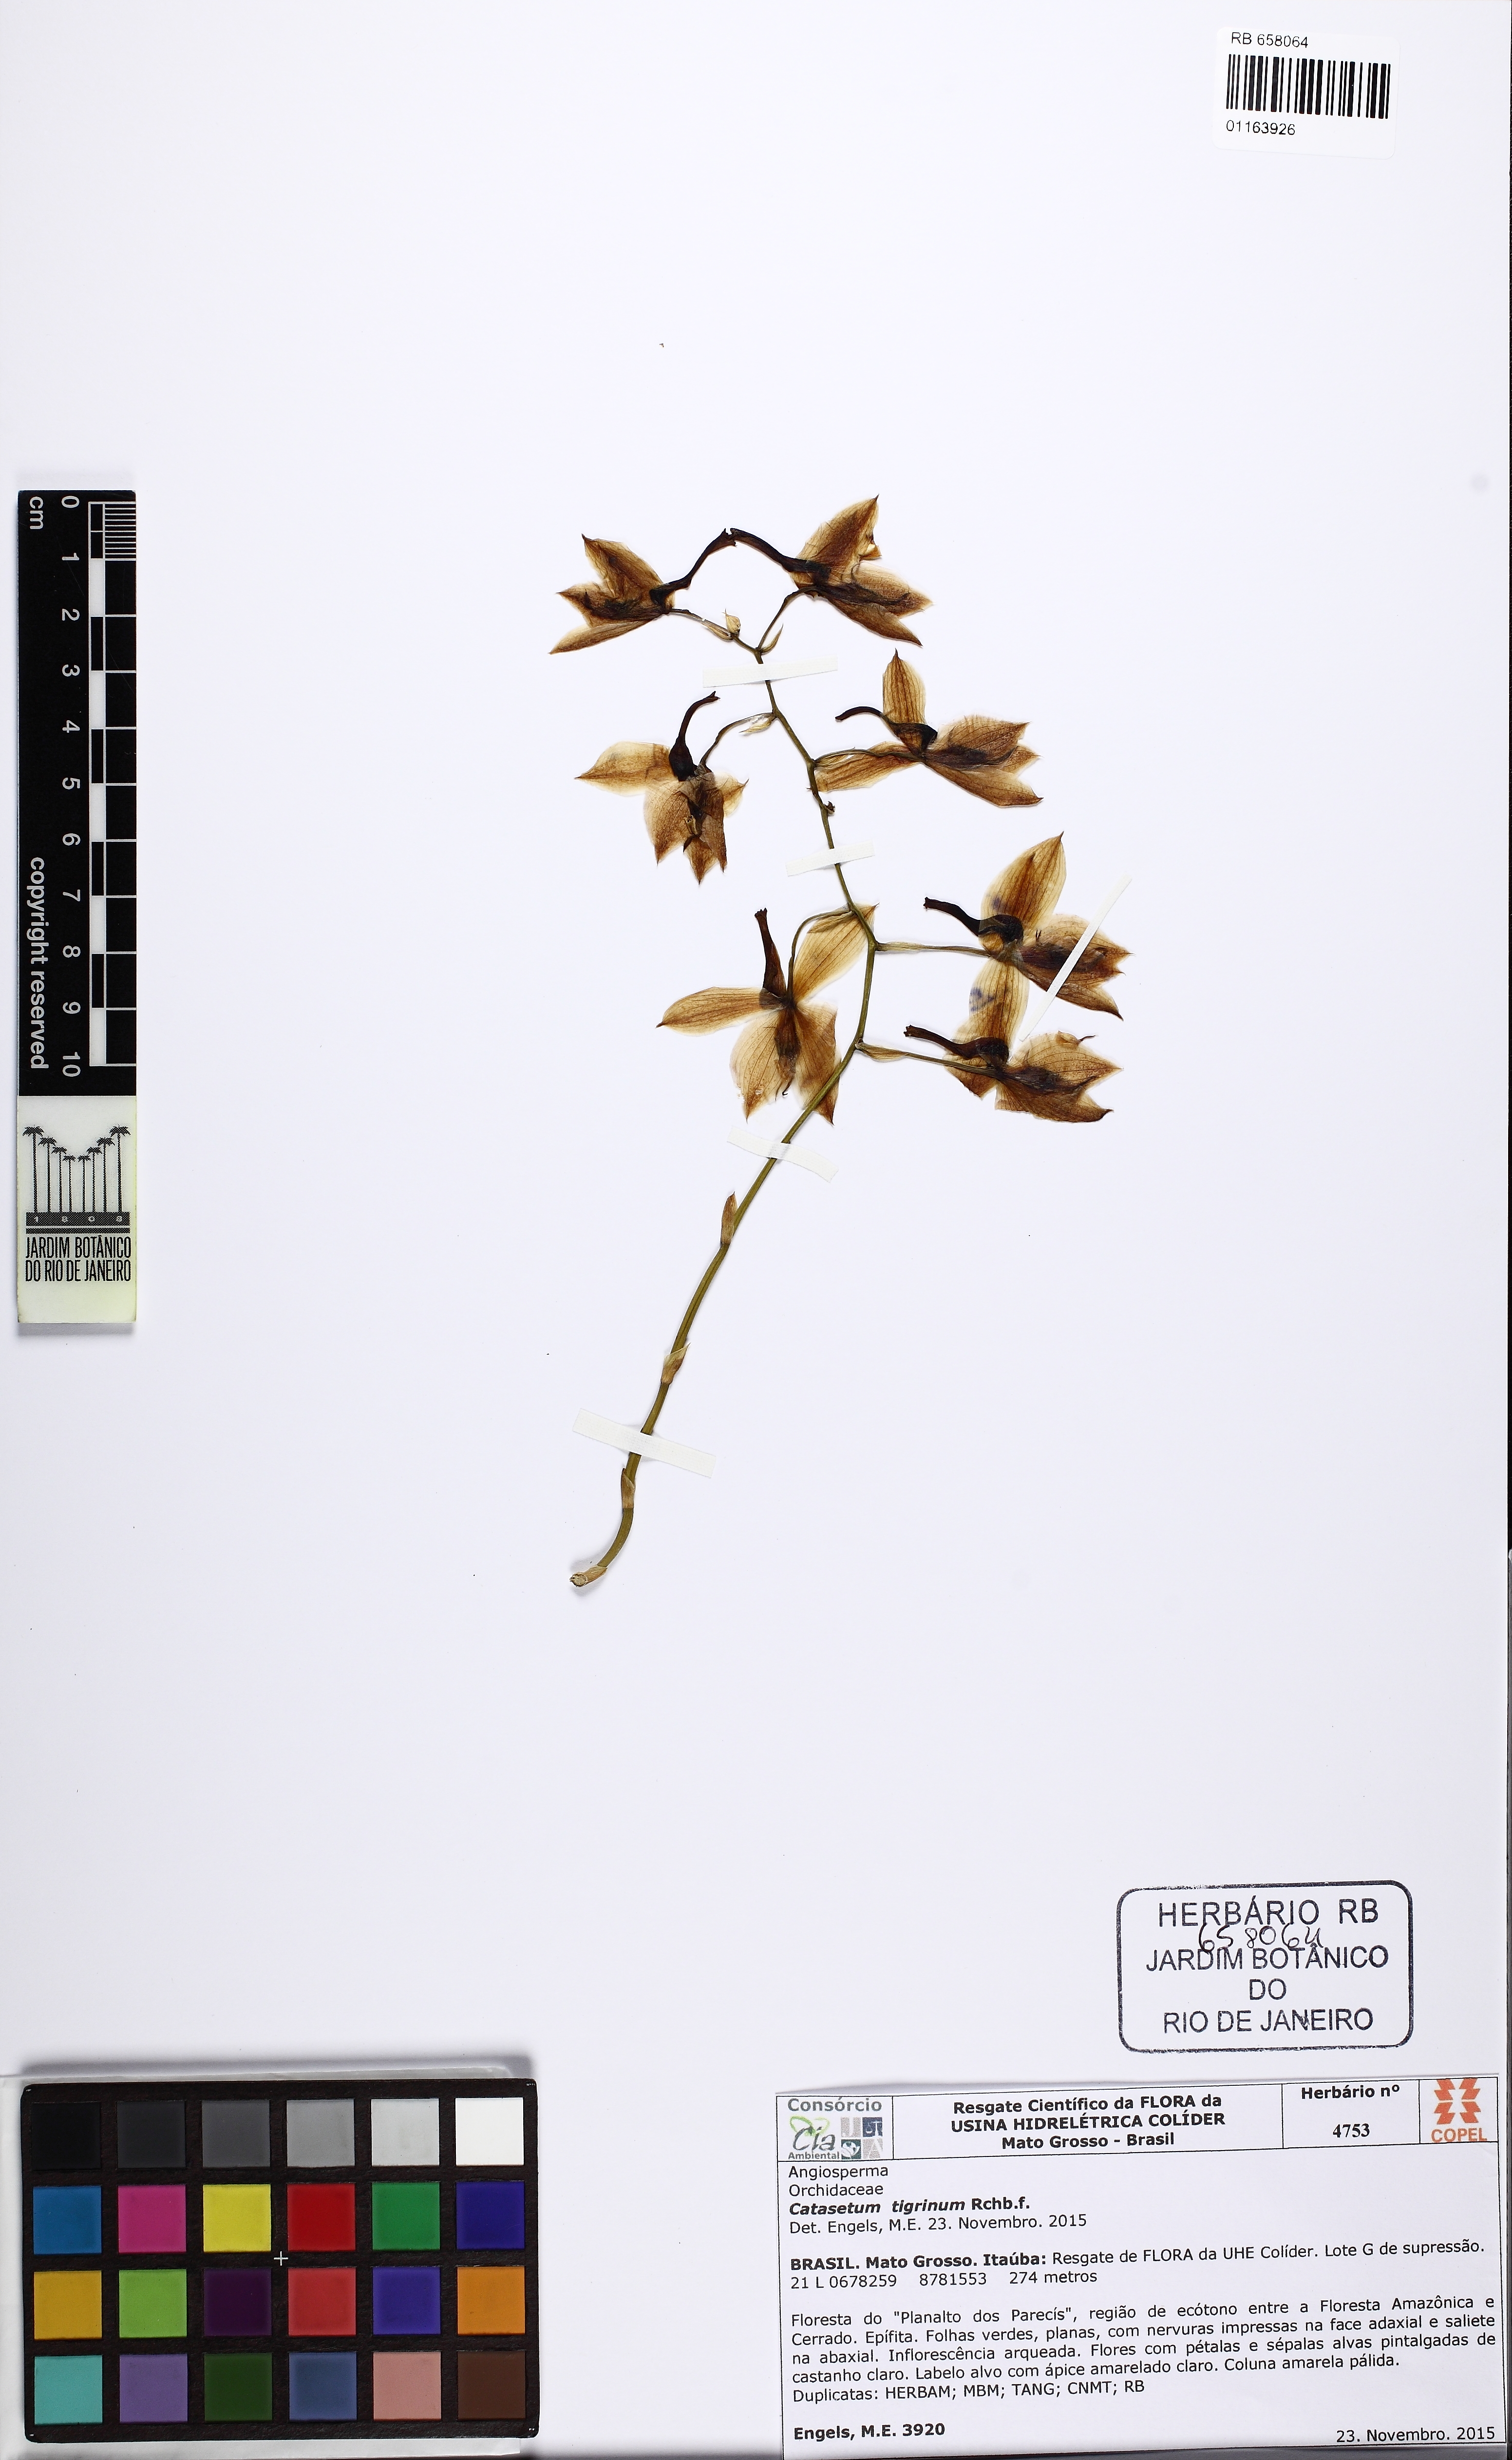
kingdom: Plantae
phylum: Tracheophyta
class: Liliopsida
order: Asparagales
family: Orchidaceae
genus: Catasetum
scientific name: Catasetum tigrinum
